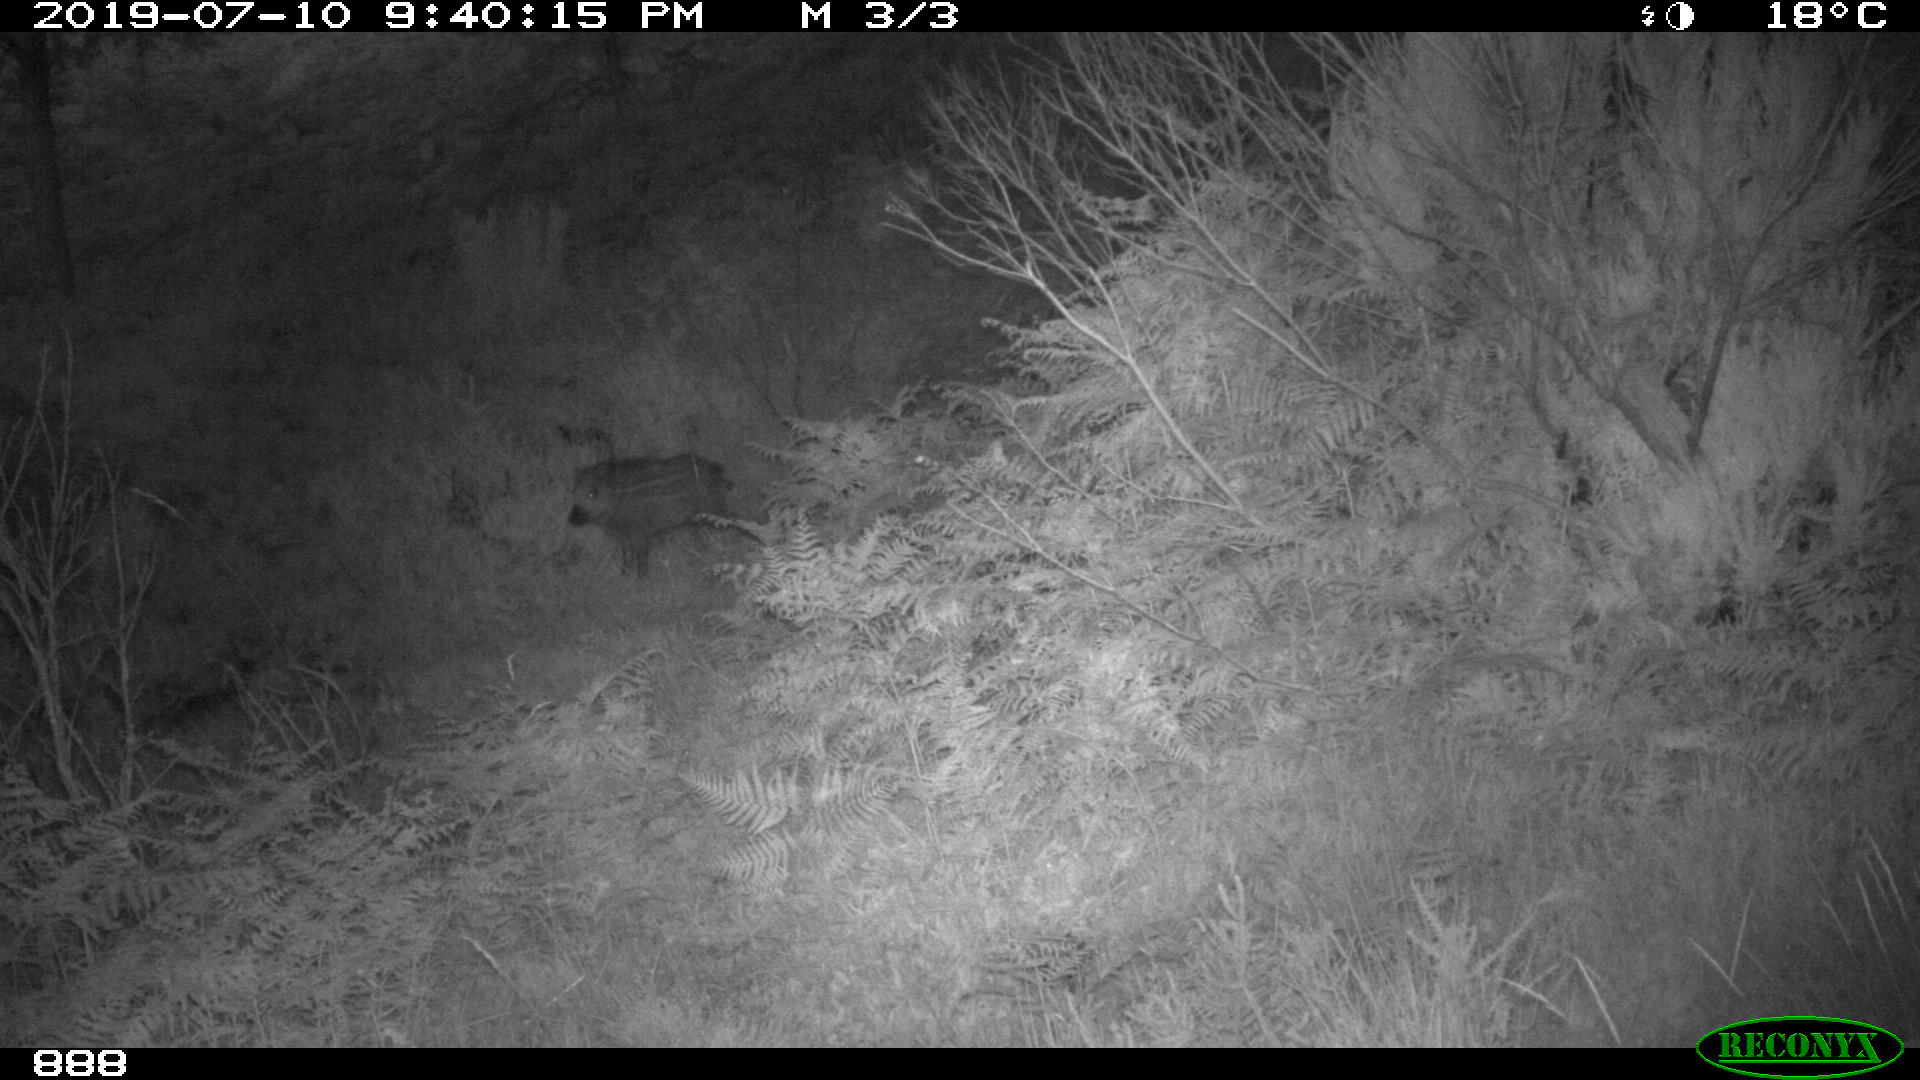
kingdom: Animalia
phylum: Chordata
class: Mammalia
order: Artiodactyla
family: Suidae
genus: Sus
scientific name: Sus scrofa
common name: Wild boar
